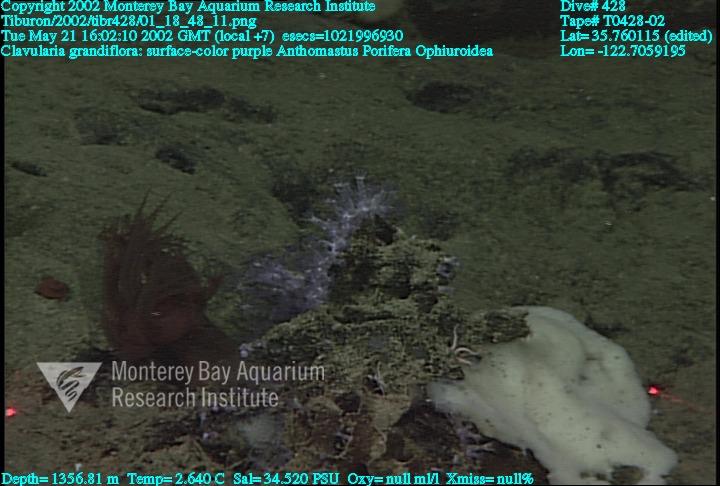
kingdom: Animalia
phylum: Porifera
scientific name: Porifera
